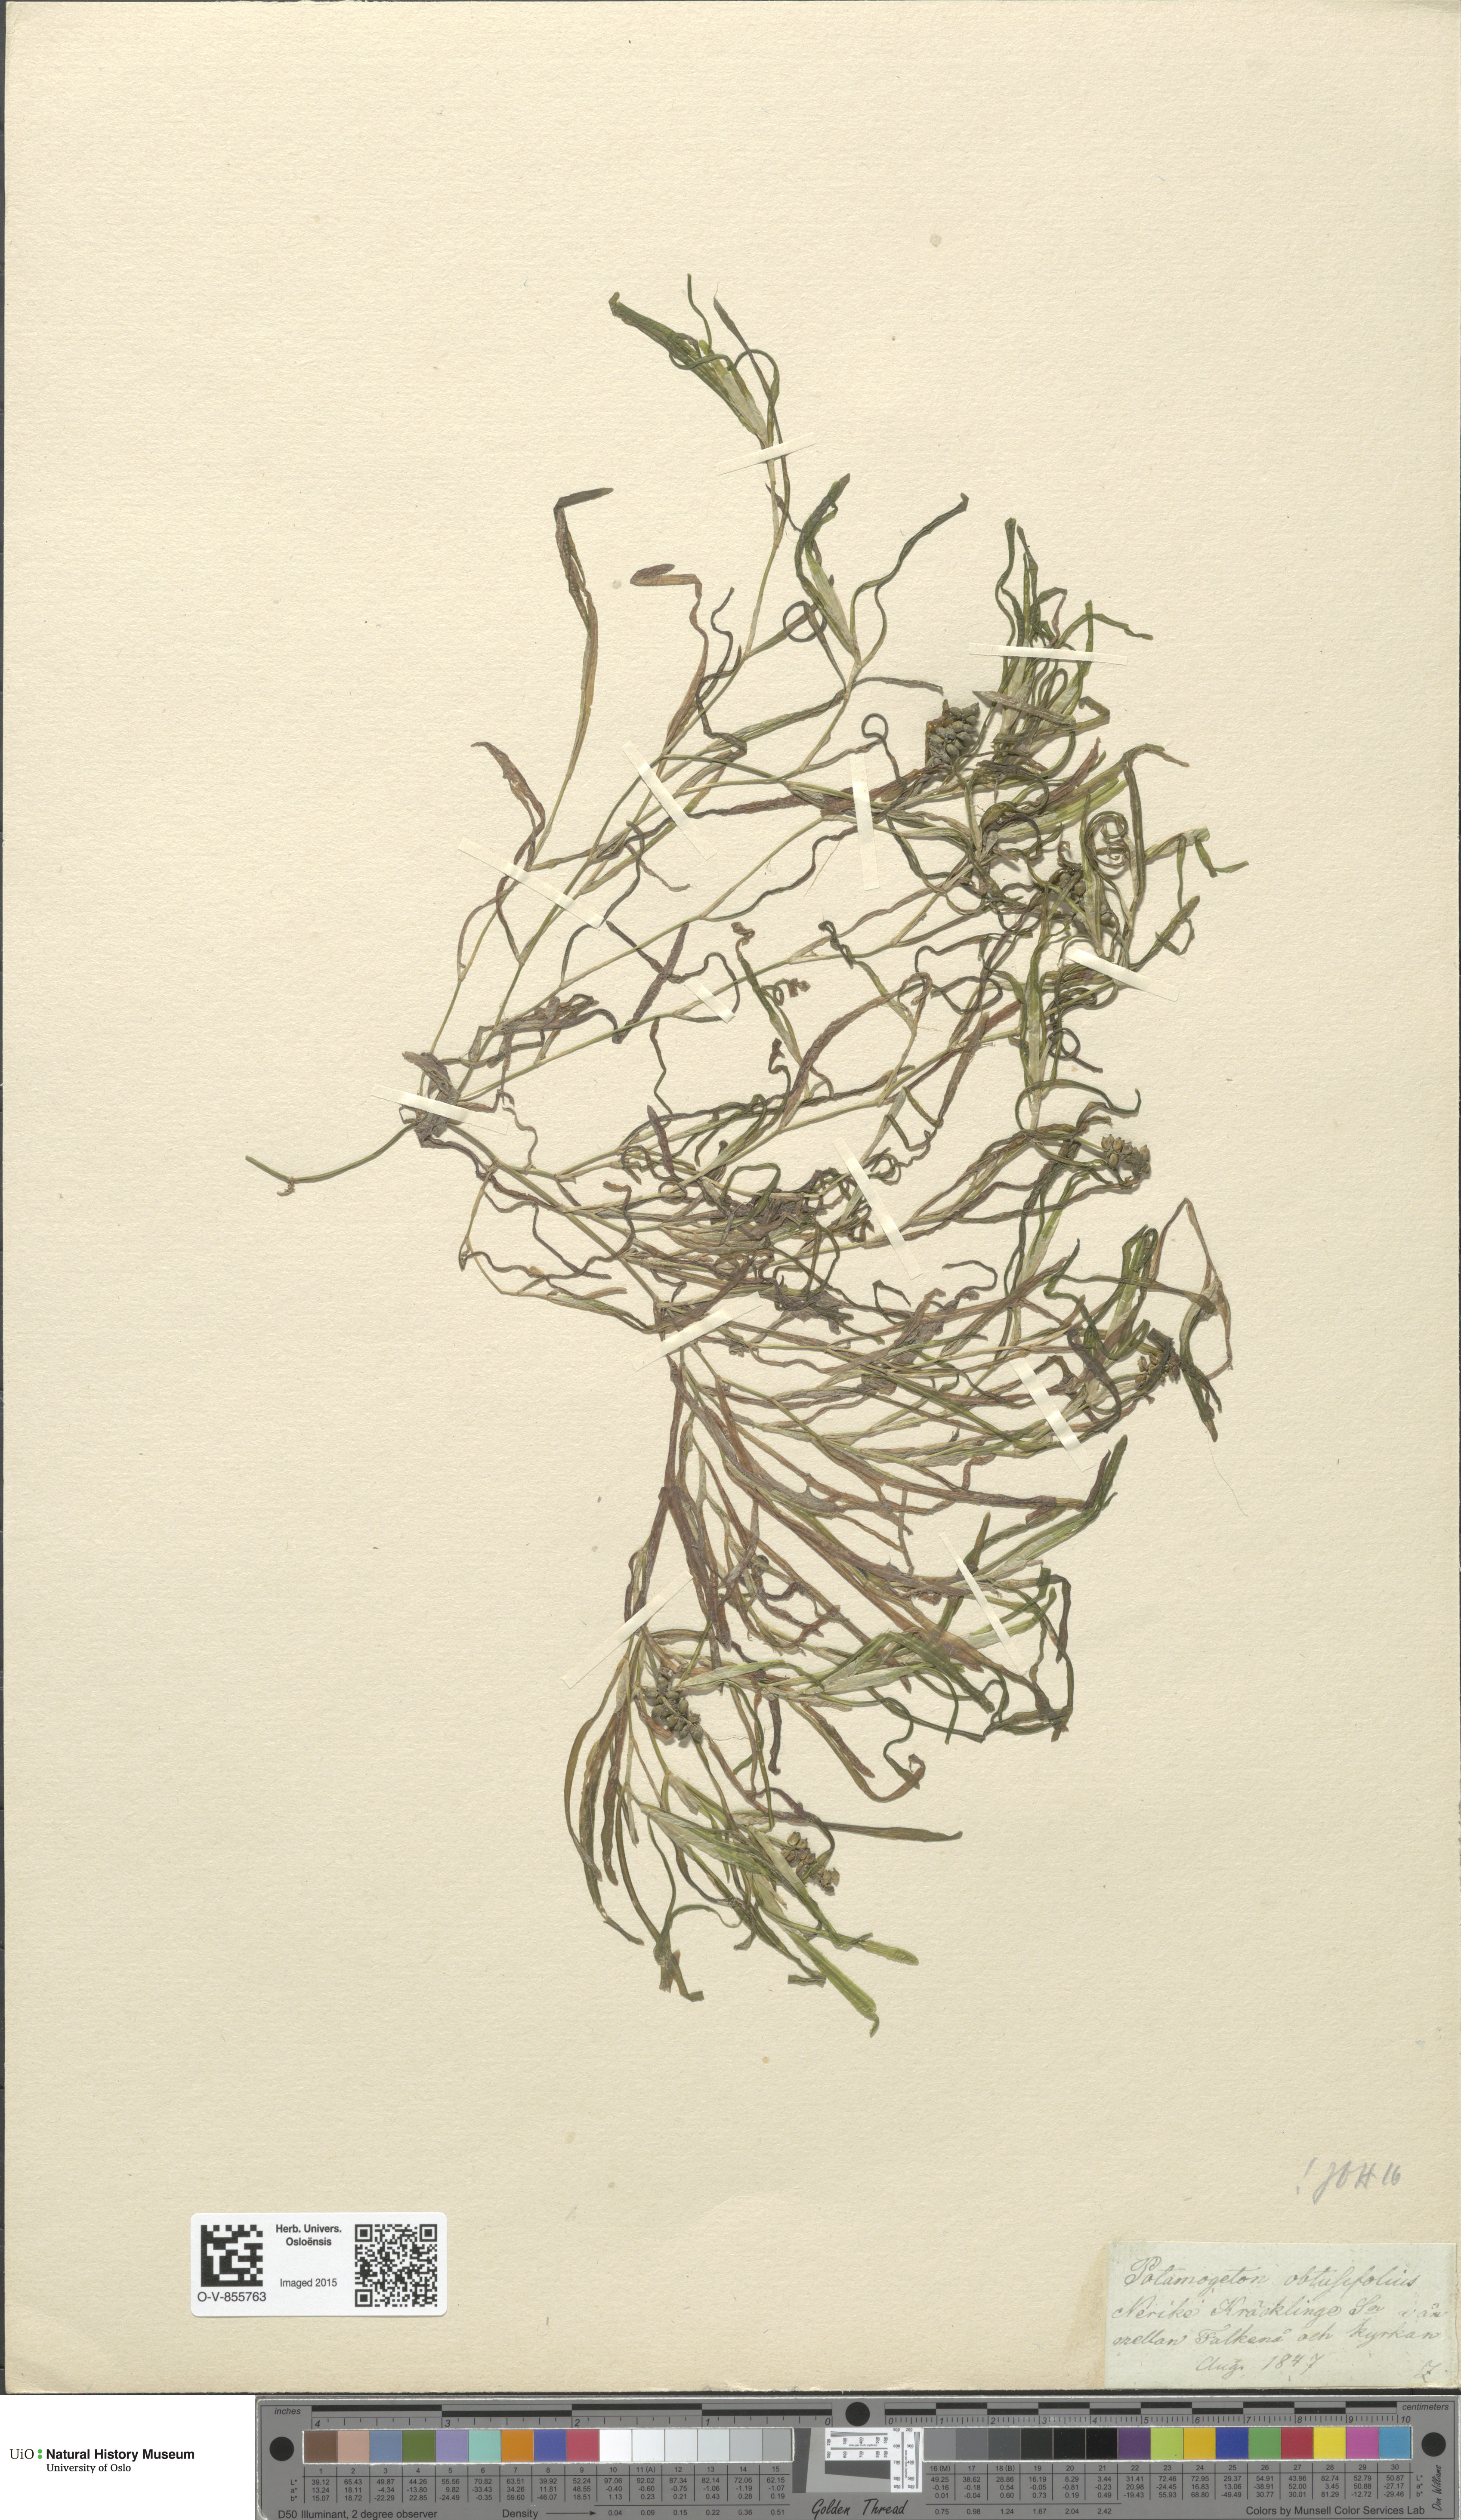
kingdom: Plantae
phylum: Tracheophyta
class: Liliopsida
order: Alismatales
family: Potamogetonaceae
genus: Potamogeton
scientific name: Potamogeton obtusifolius
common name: Blunt-leaved pondweed
